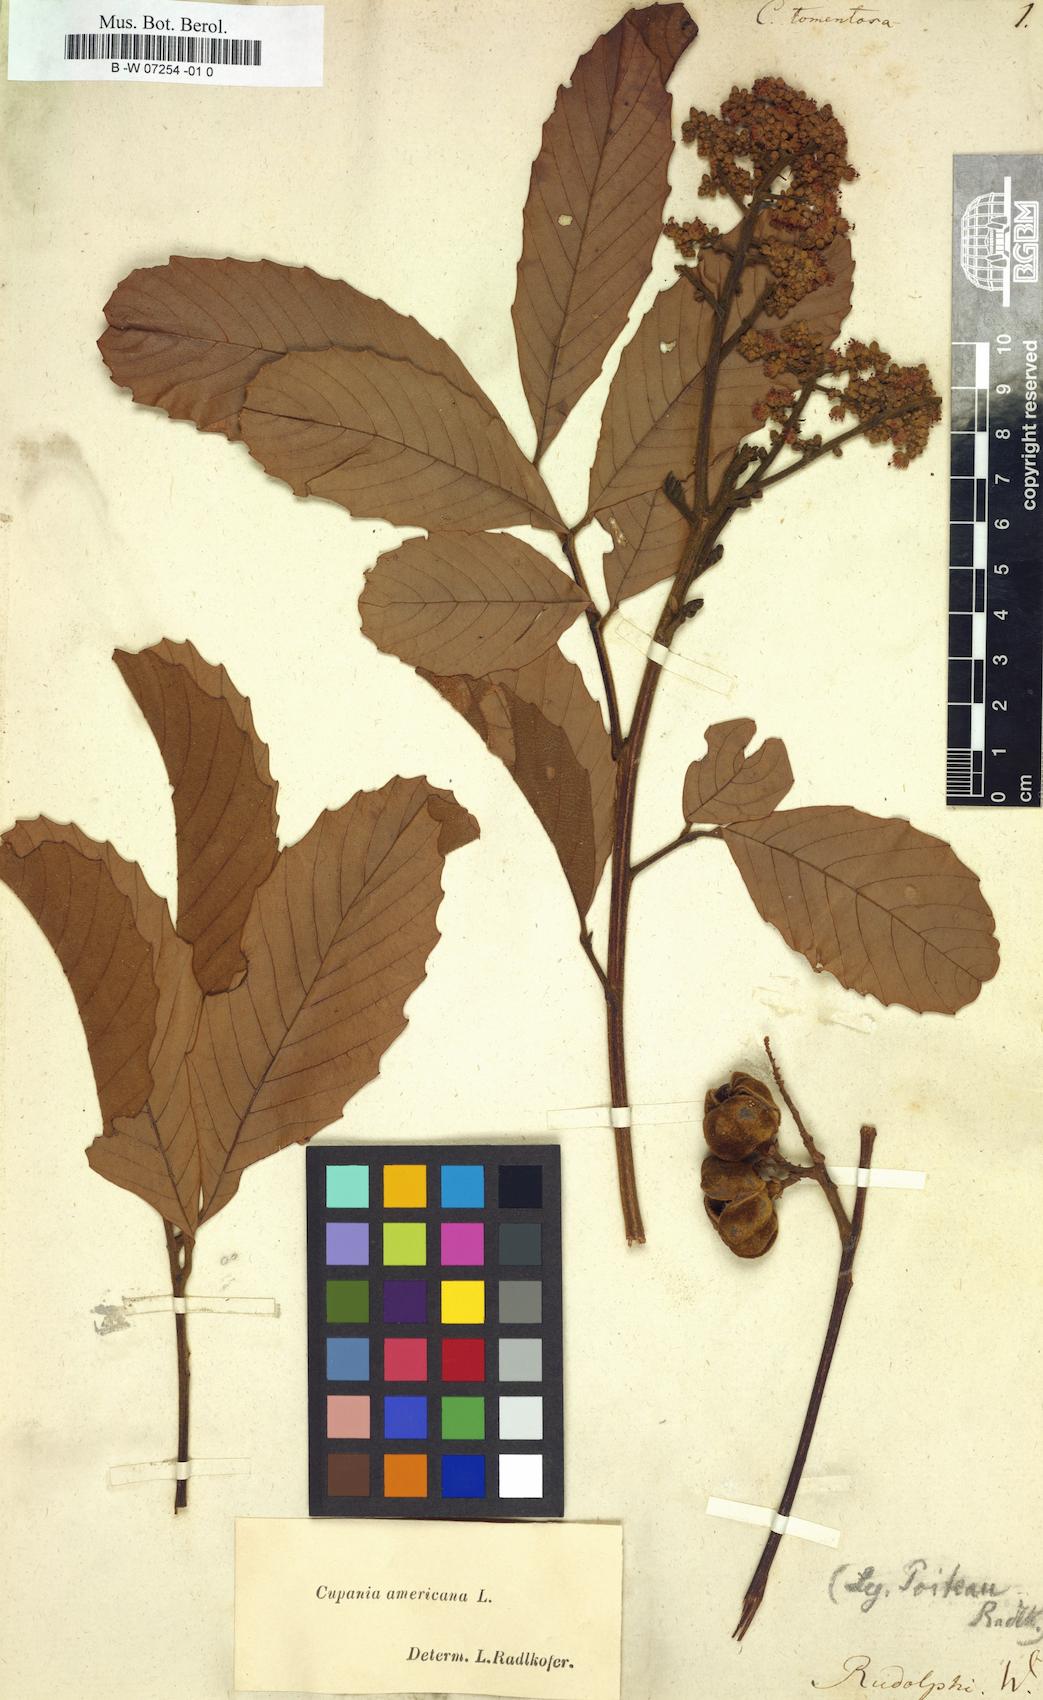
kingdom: Plantae
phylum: Tracheophyta
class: Magnoliopsida
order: Sapindales
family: Sapindaceae
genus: Cupania
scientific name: Cupania americana
